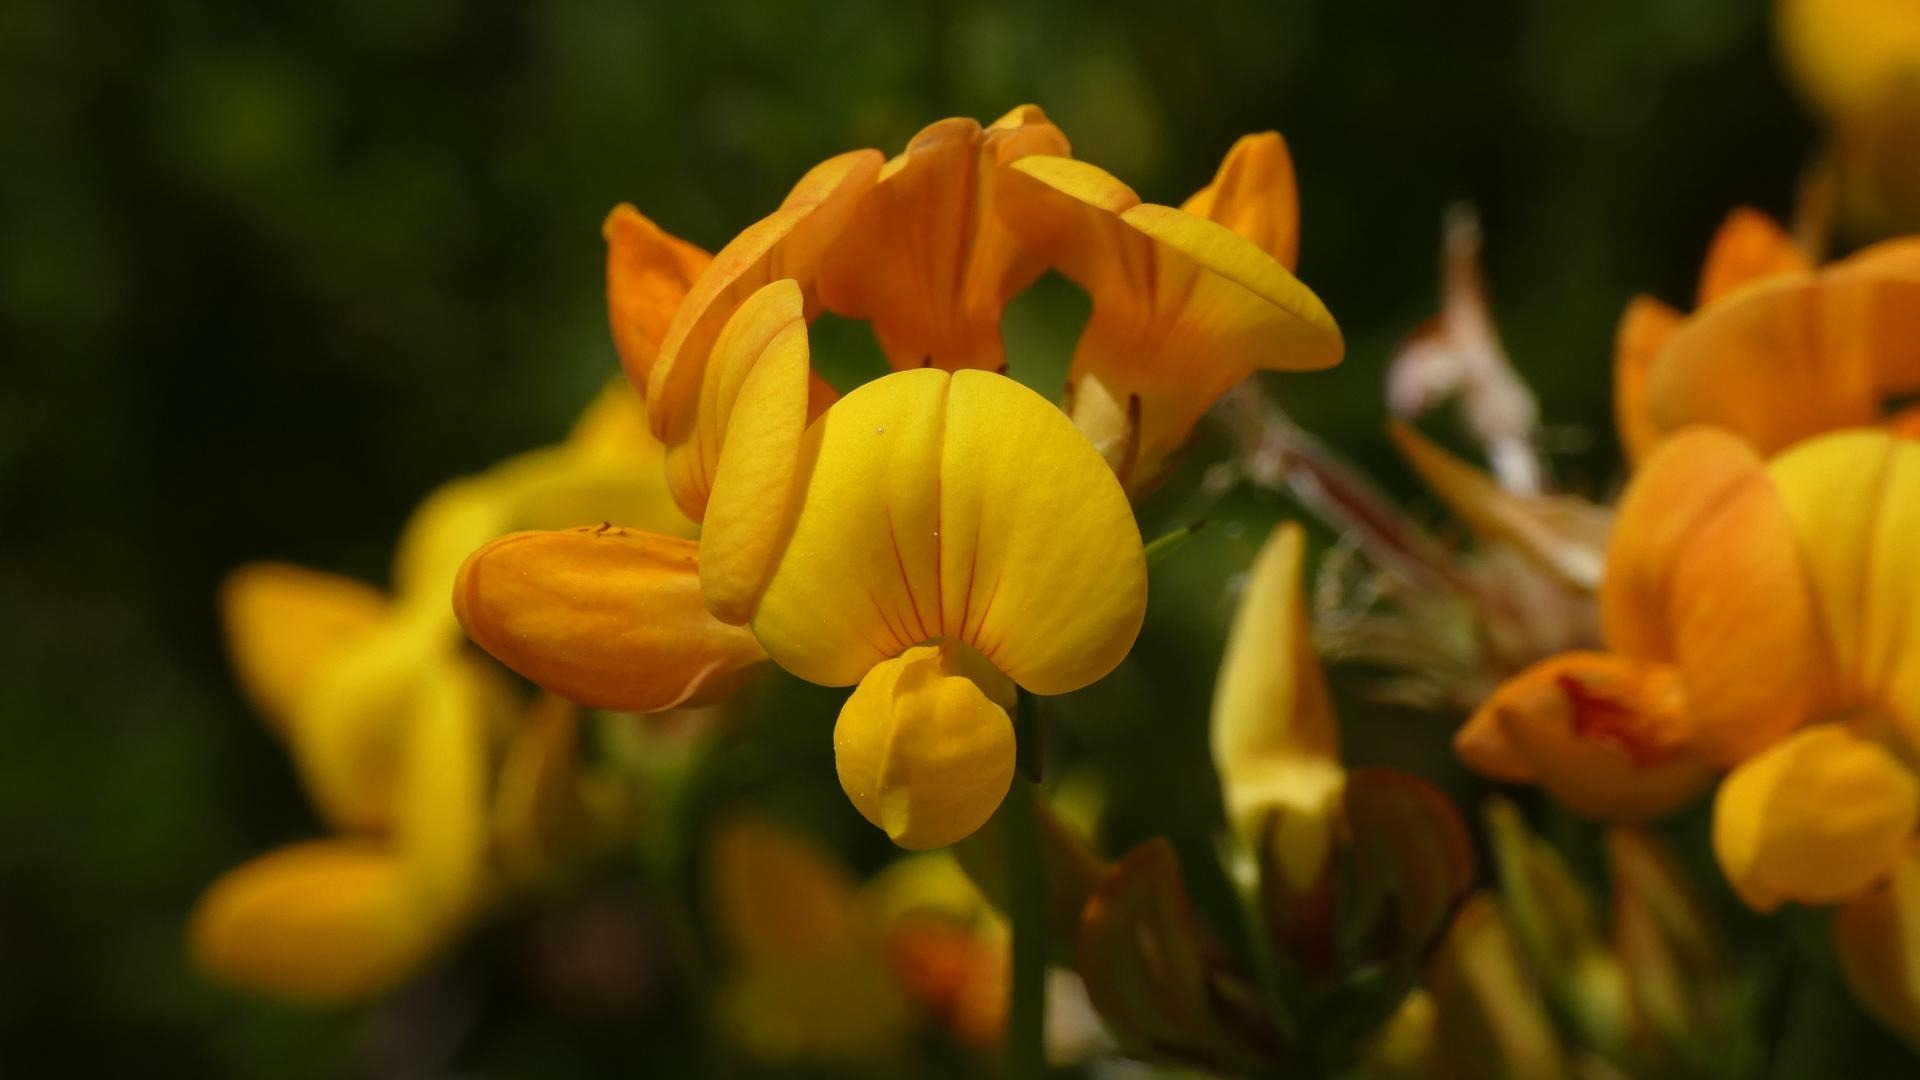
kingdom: Plantae
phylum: Tracheophyta
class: Magnoliopsida
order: Fabales
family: Fabaceae
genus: Lotus
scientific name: Lotus corniculatus
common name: Almindelig kællingetand
